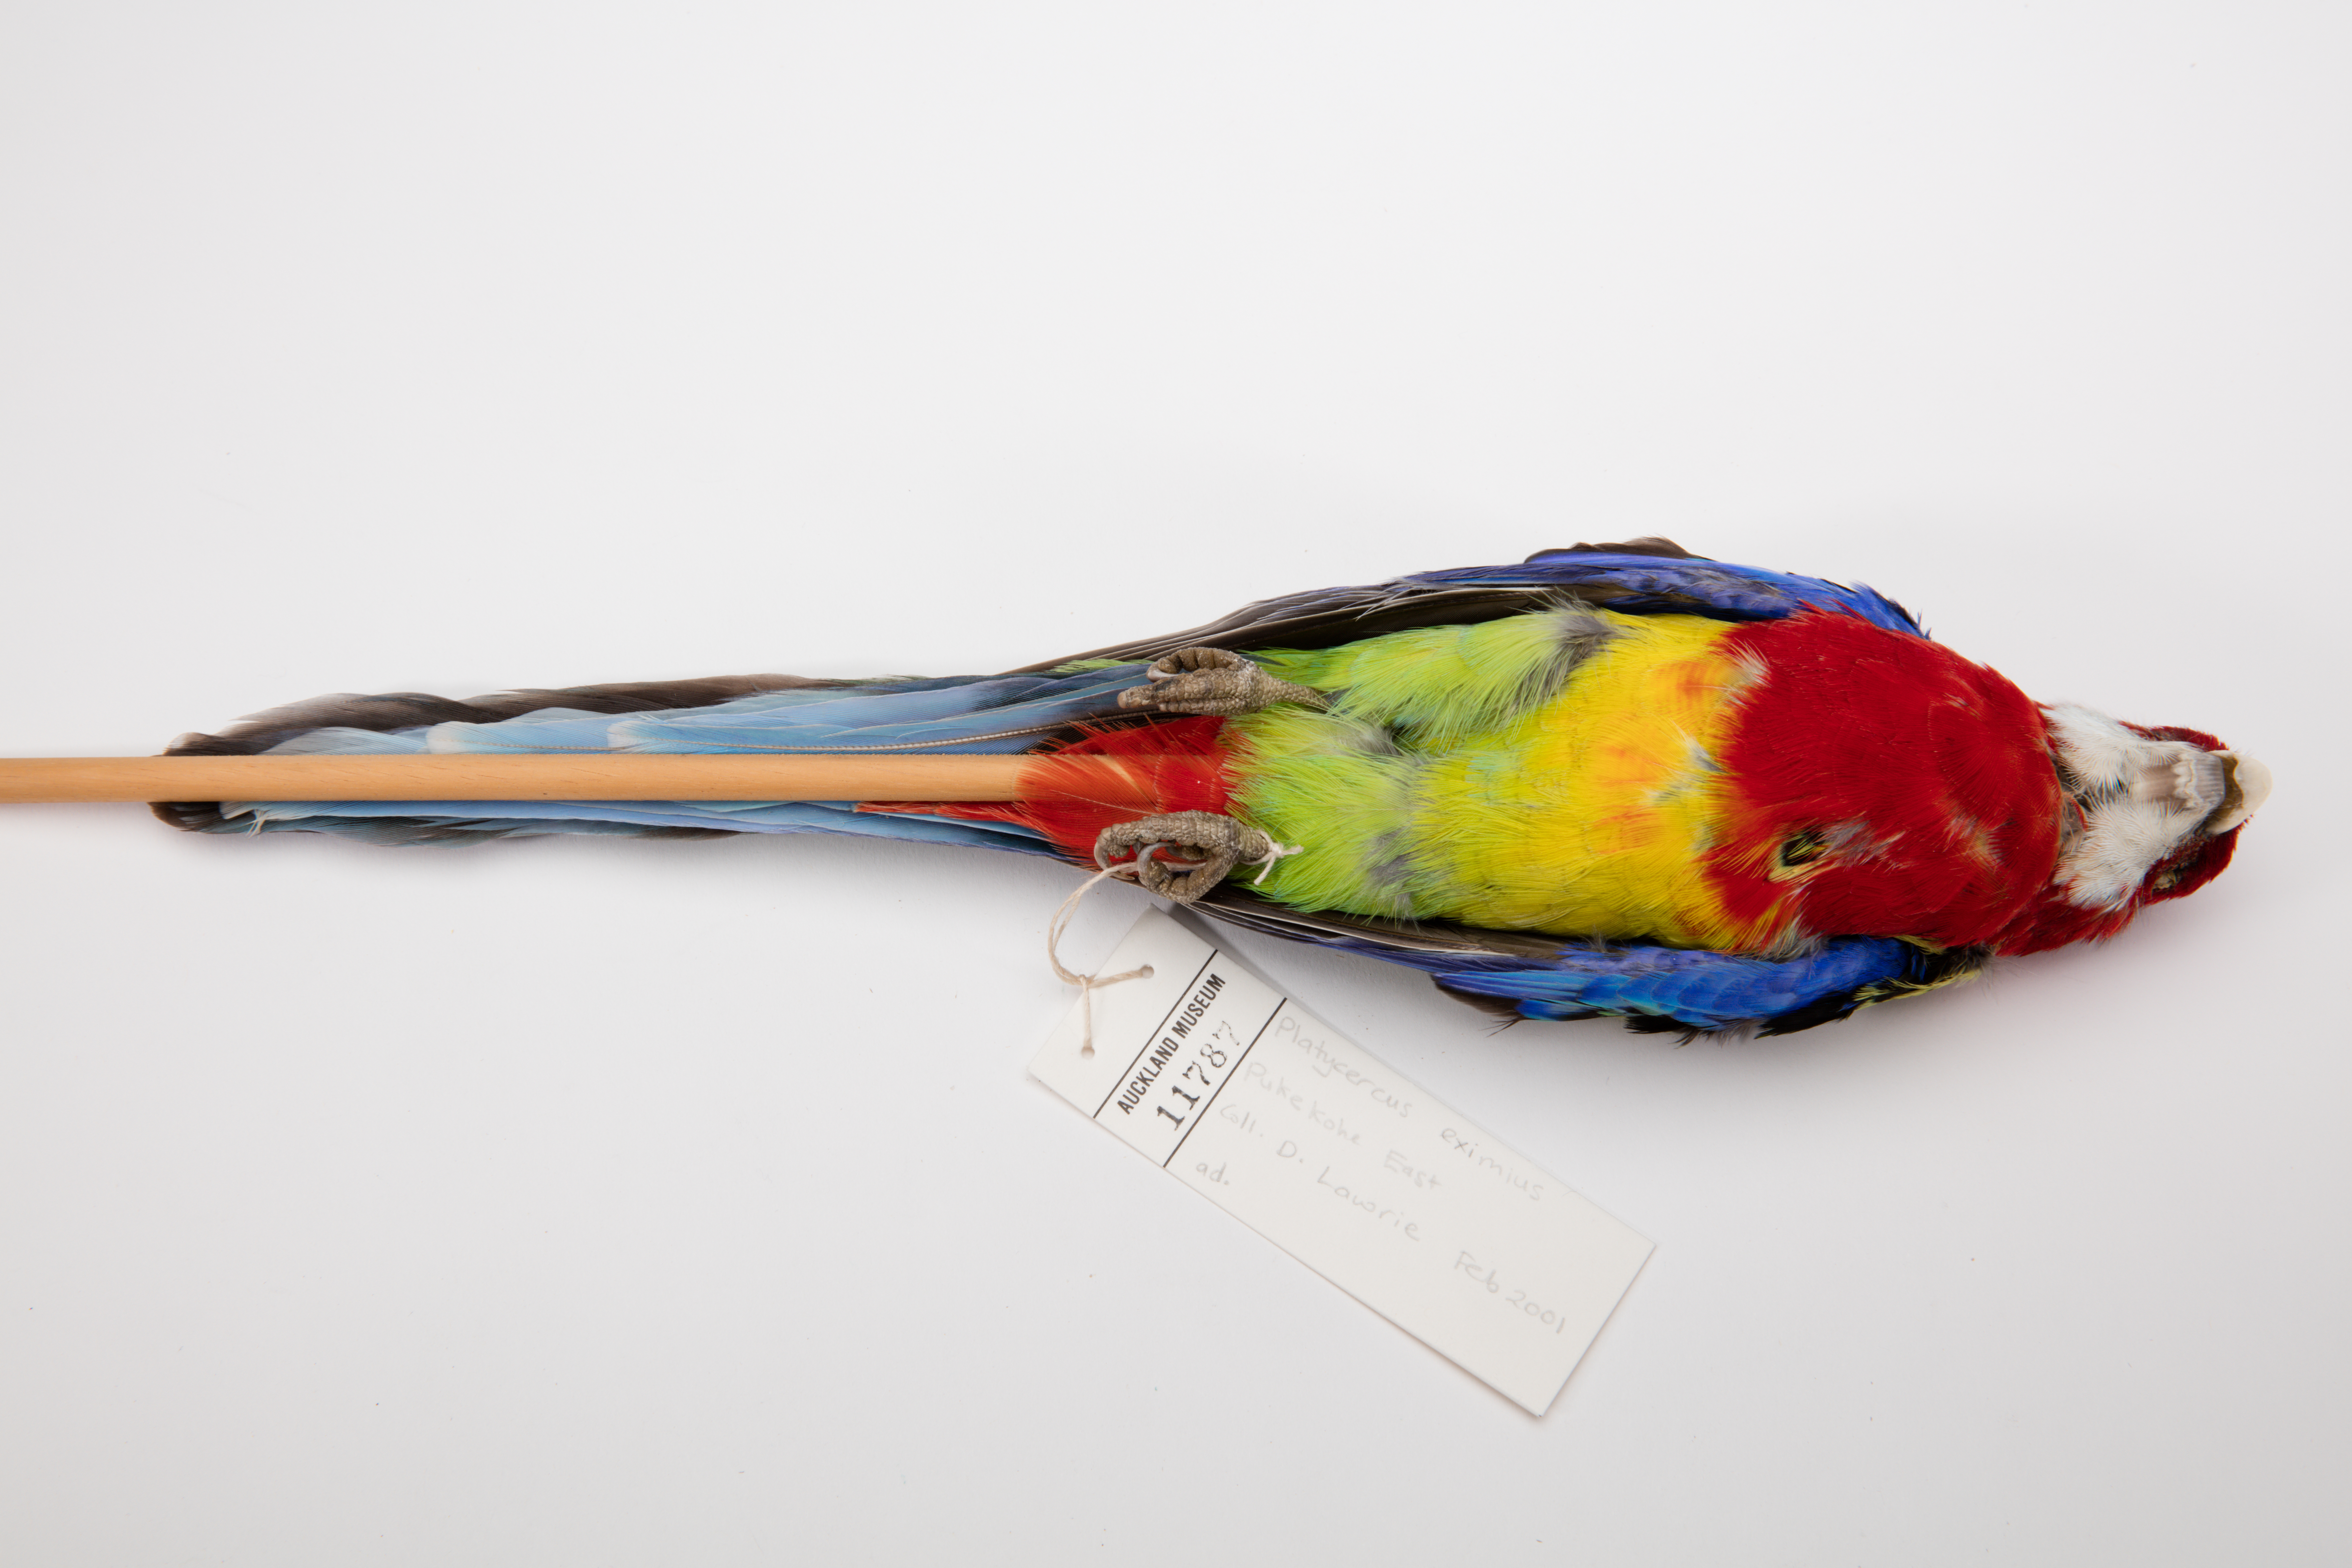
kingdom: Animalia
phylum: Chordata
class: Aves
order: Psittaciformes
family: Psittacidae
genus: Platycercus
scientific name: Platycercus eximius
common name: Eastern rosella
